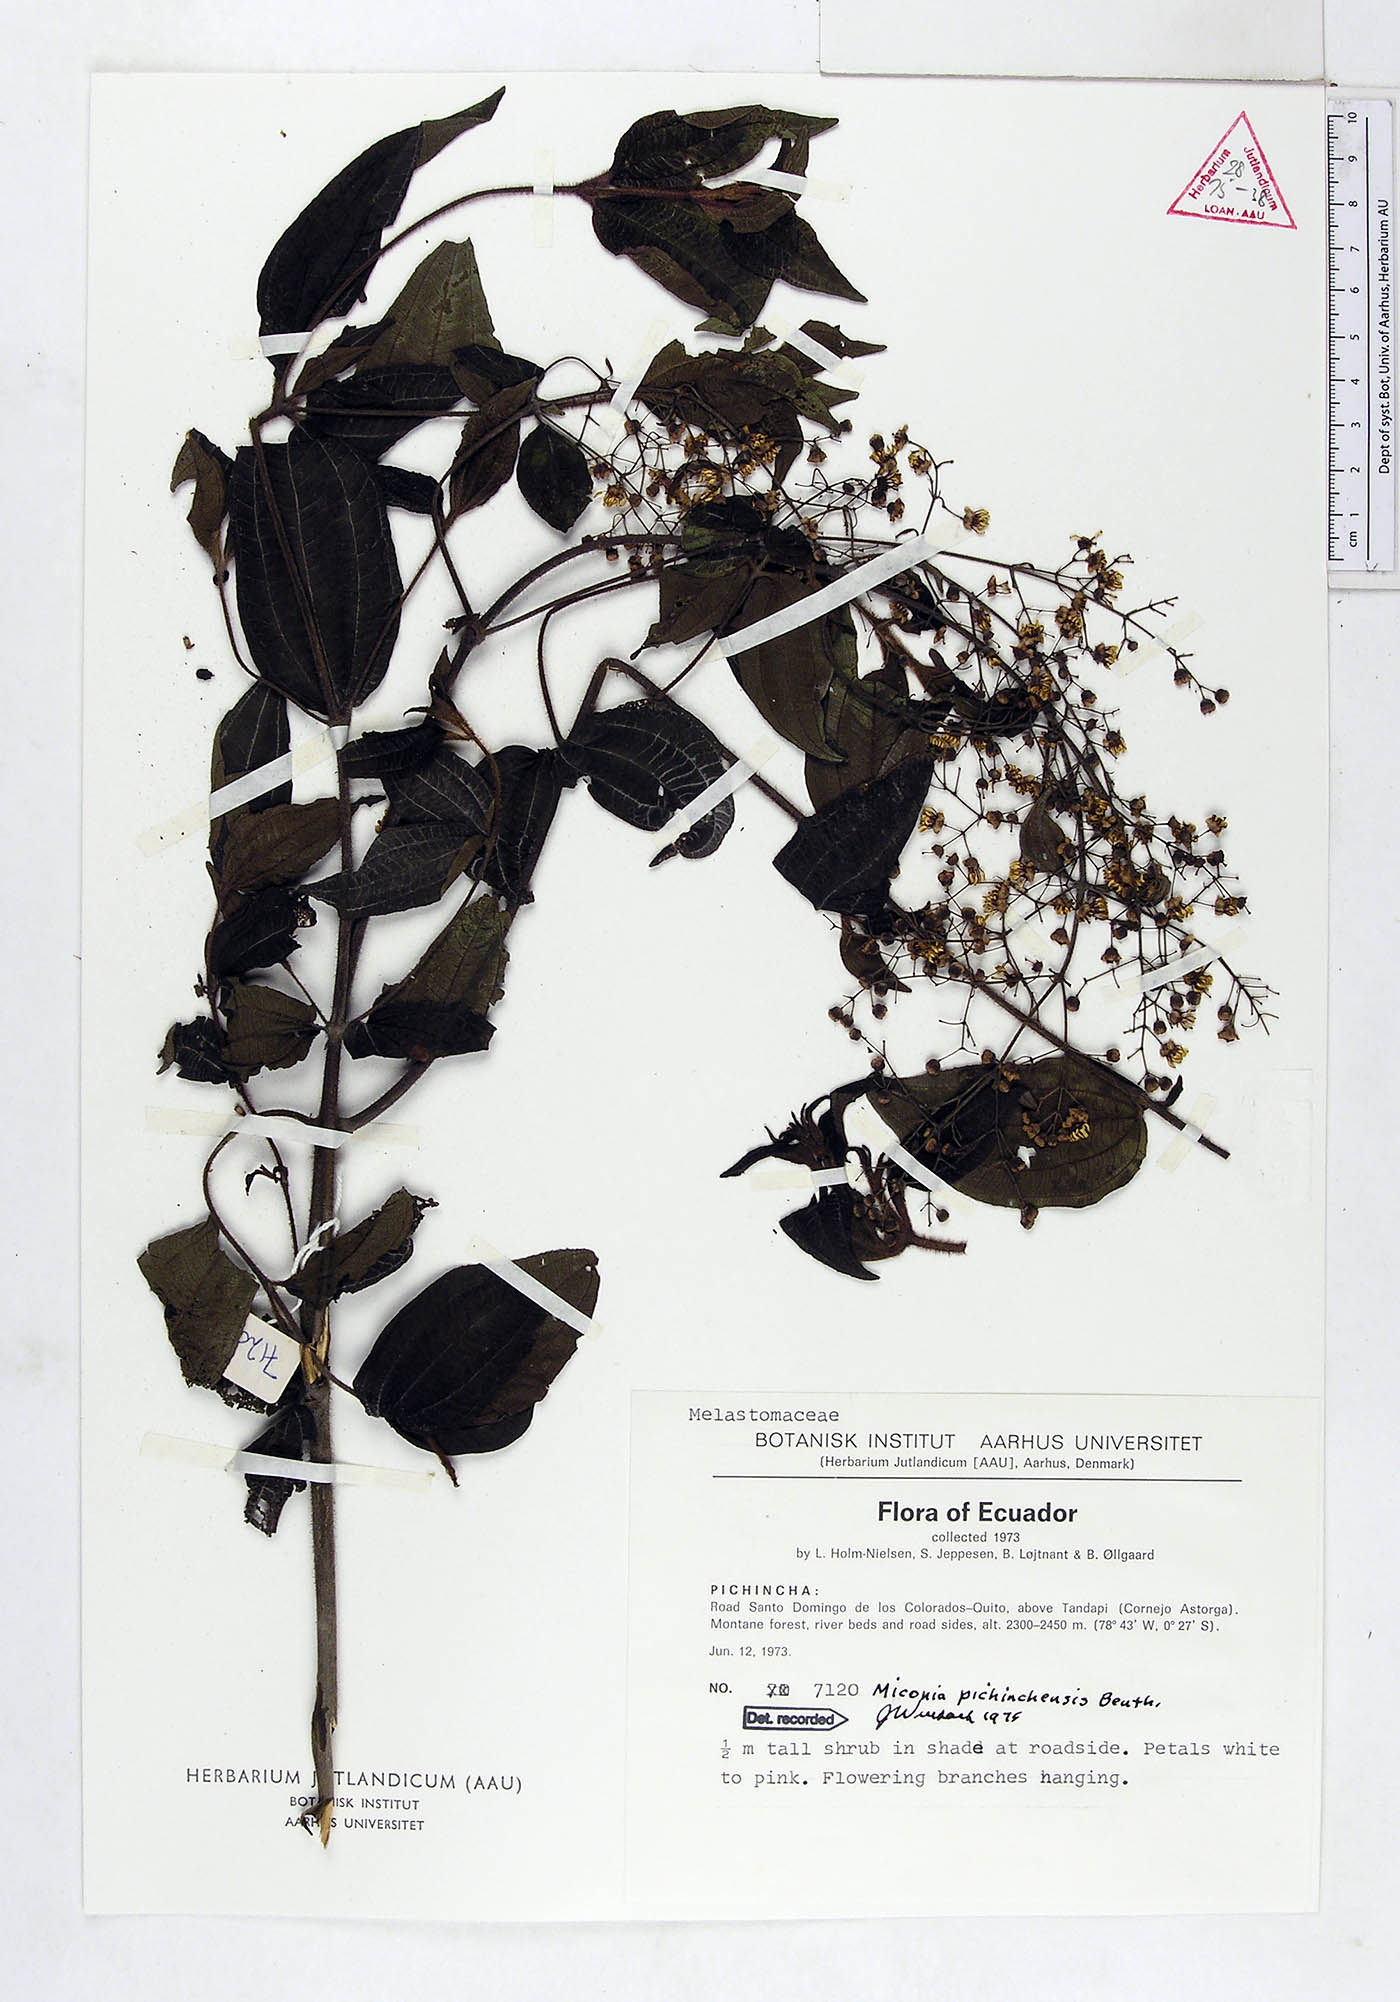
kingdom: Plantae
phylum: Tracheophyta
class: Magnoliopsida
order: Myrtales
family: Melastomataceae
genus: Miconia
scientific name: Miconia pichinchensis
